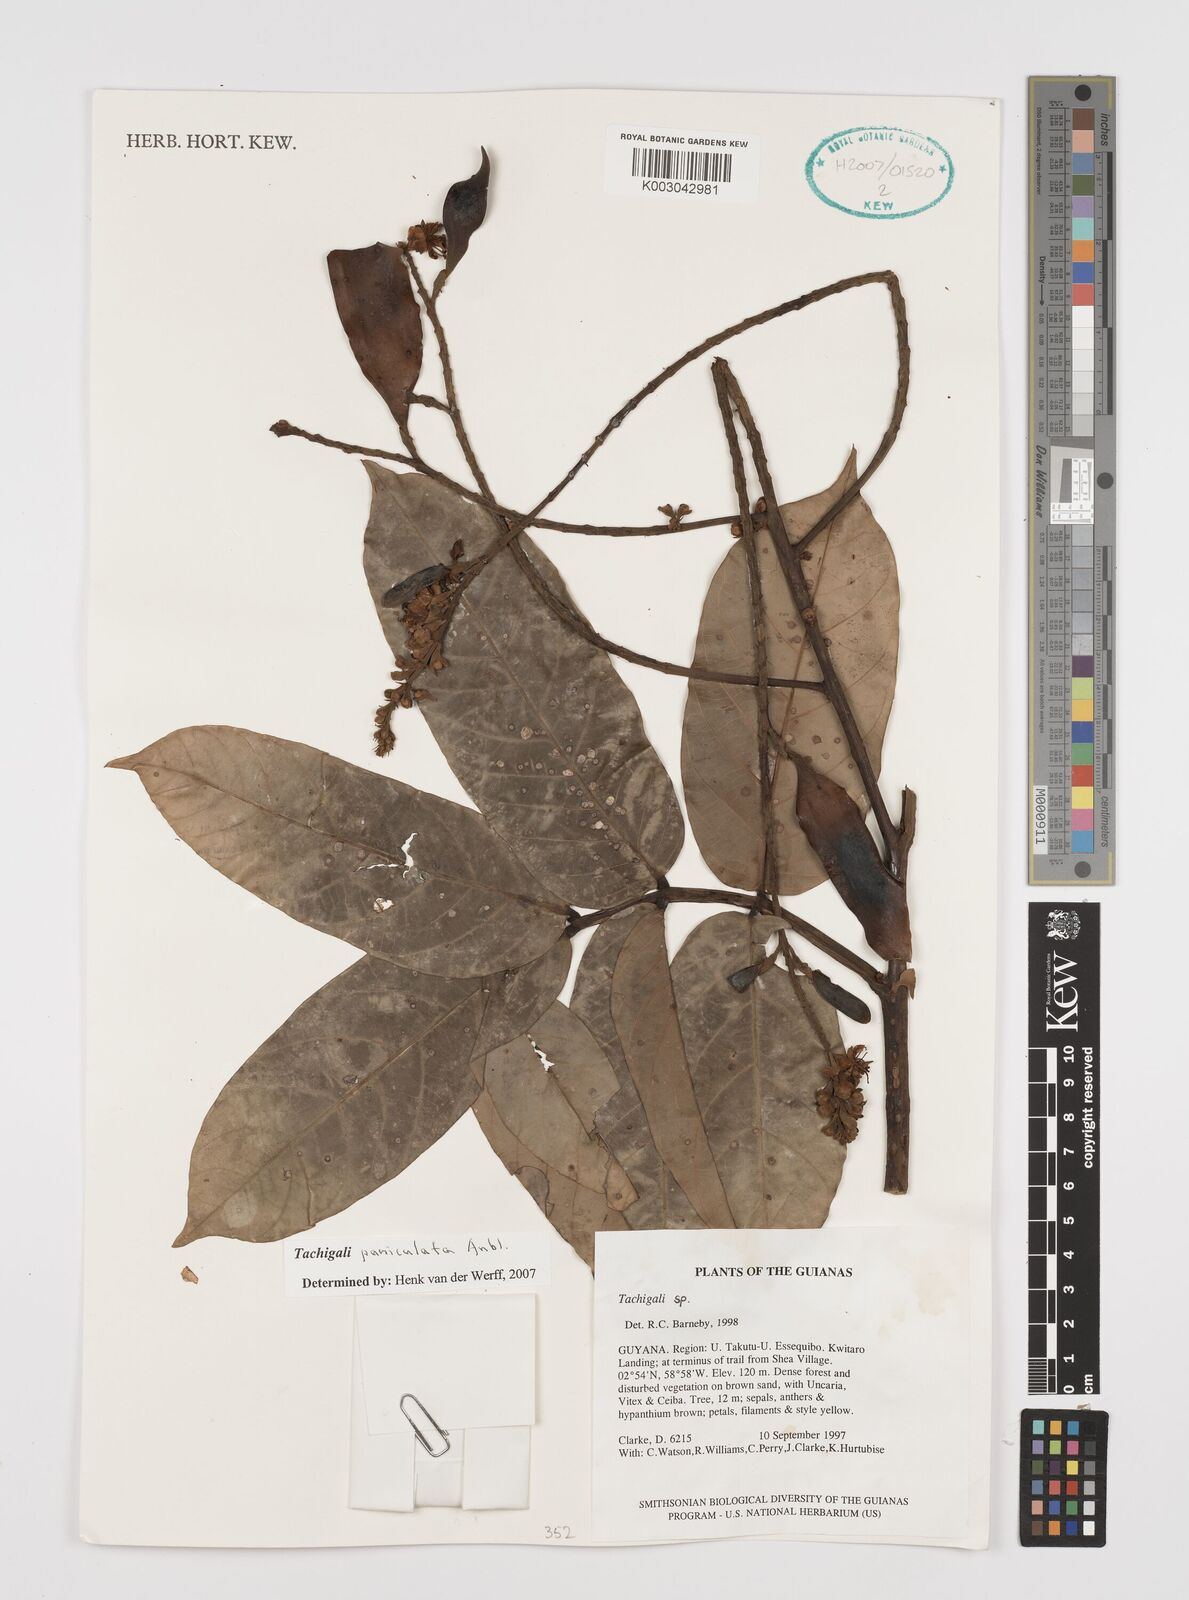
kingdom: Plantae
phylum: Tracheophyta
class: Magnoliopsida
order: Fabales
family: Fabaceae
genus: Tachigali
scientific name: Tachigali paniculata
